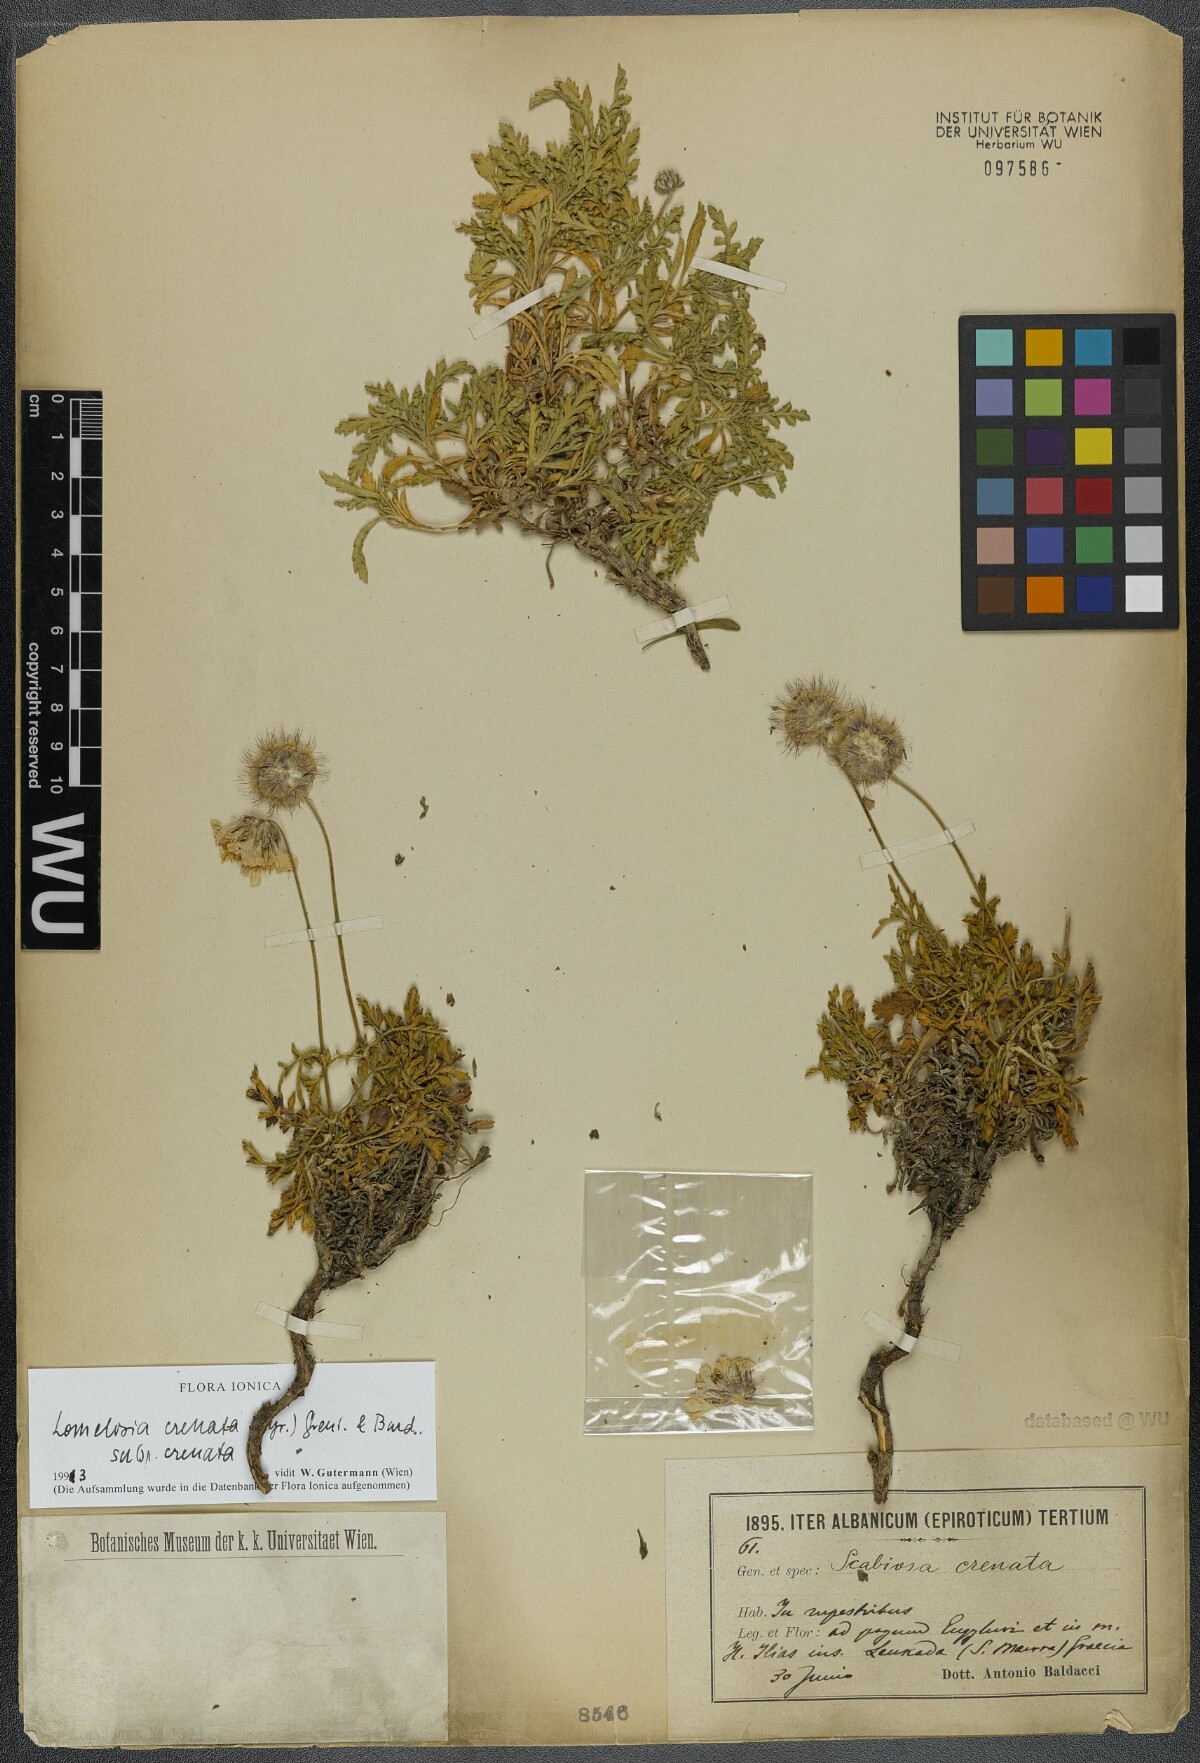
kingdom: Plantae
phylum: Tracheophyta
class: Magnoliopsida
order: Dipsacales
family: Caprifoliaceae
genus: Lomelosia
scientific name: Lomelosia crenata
